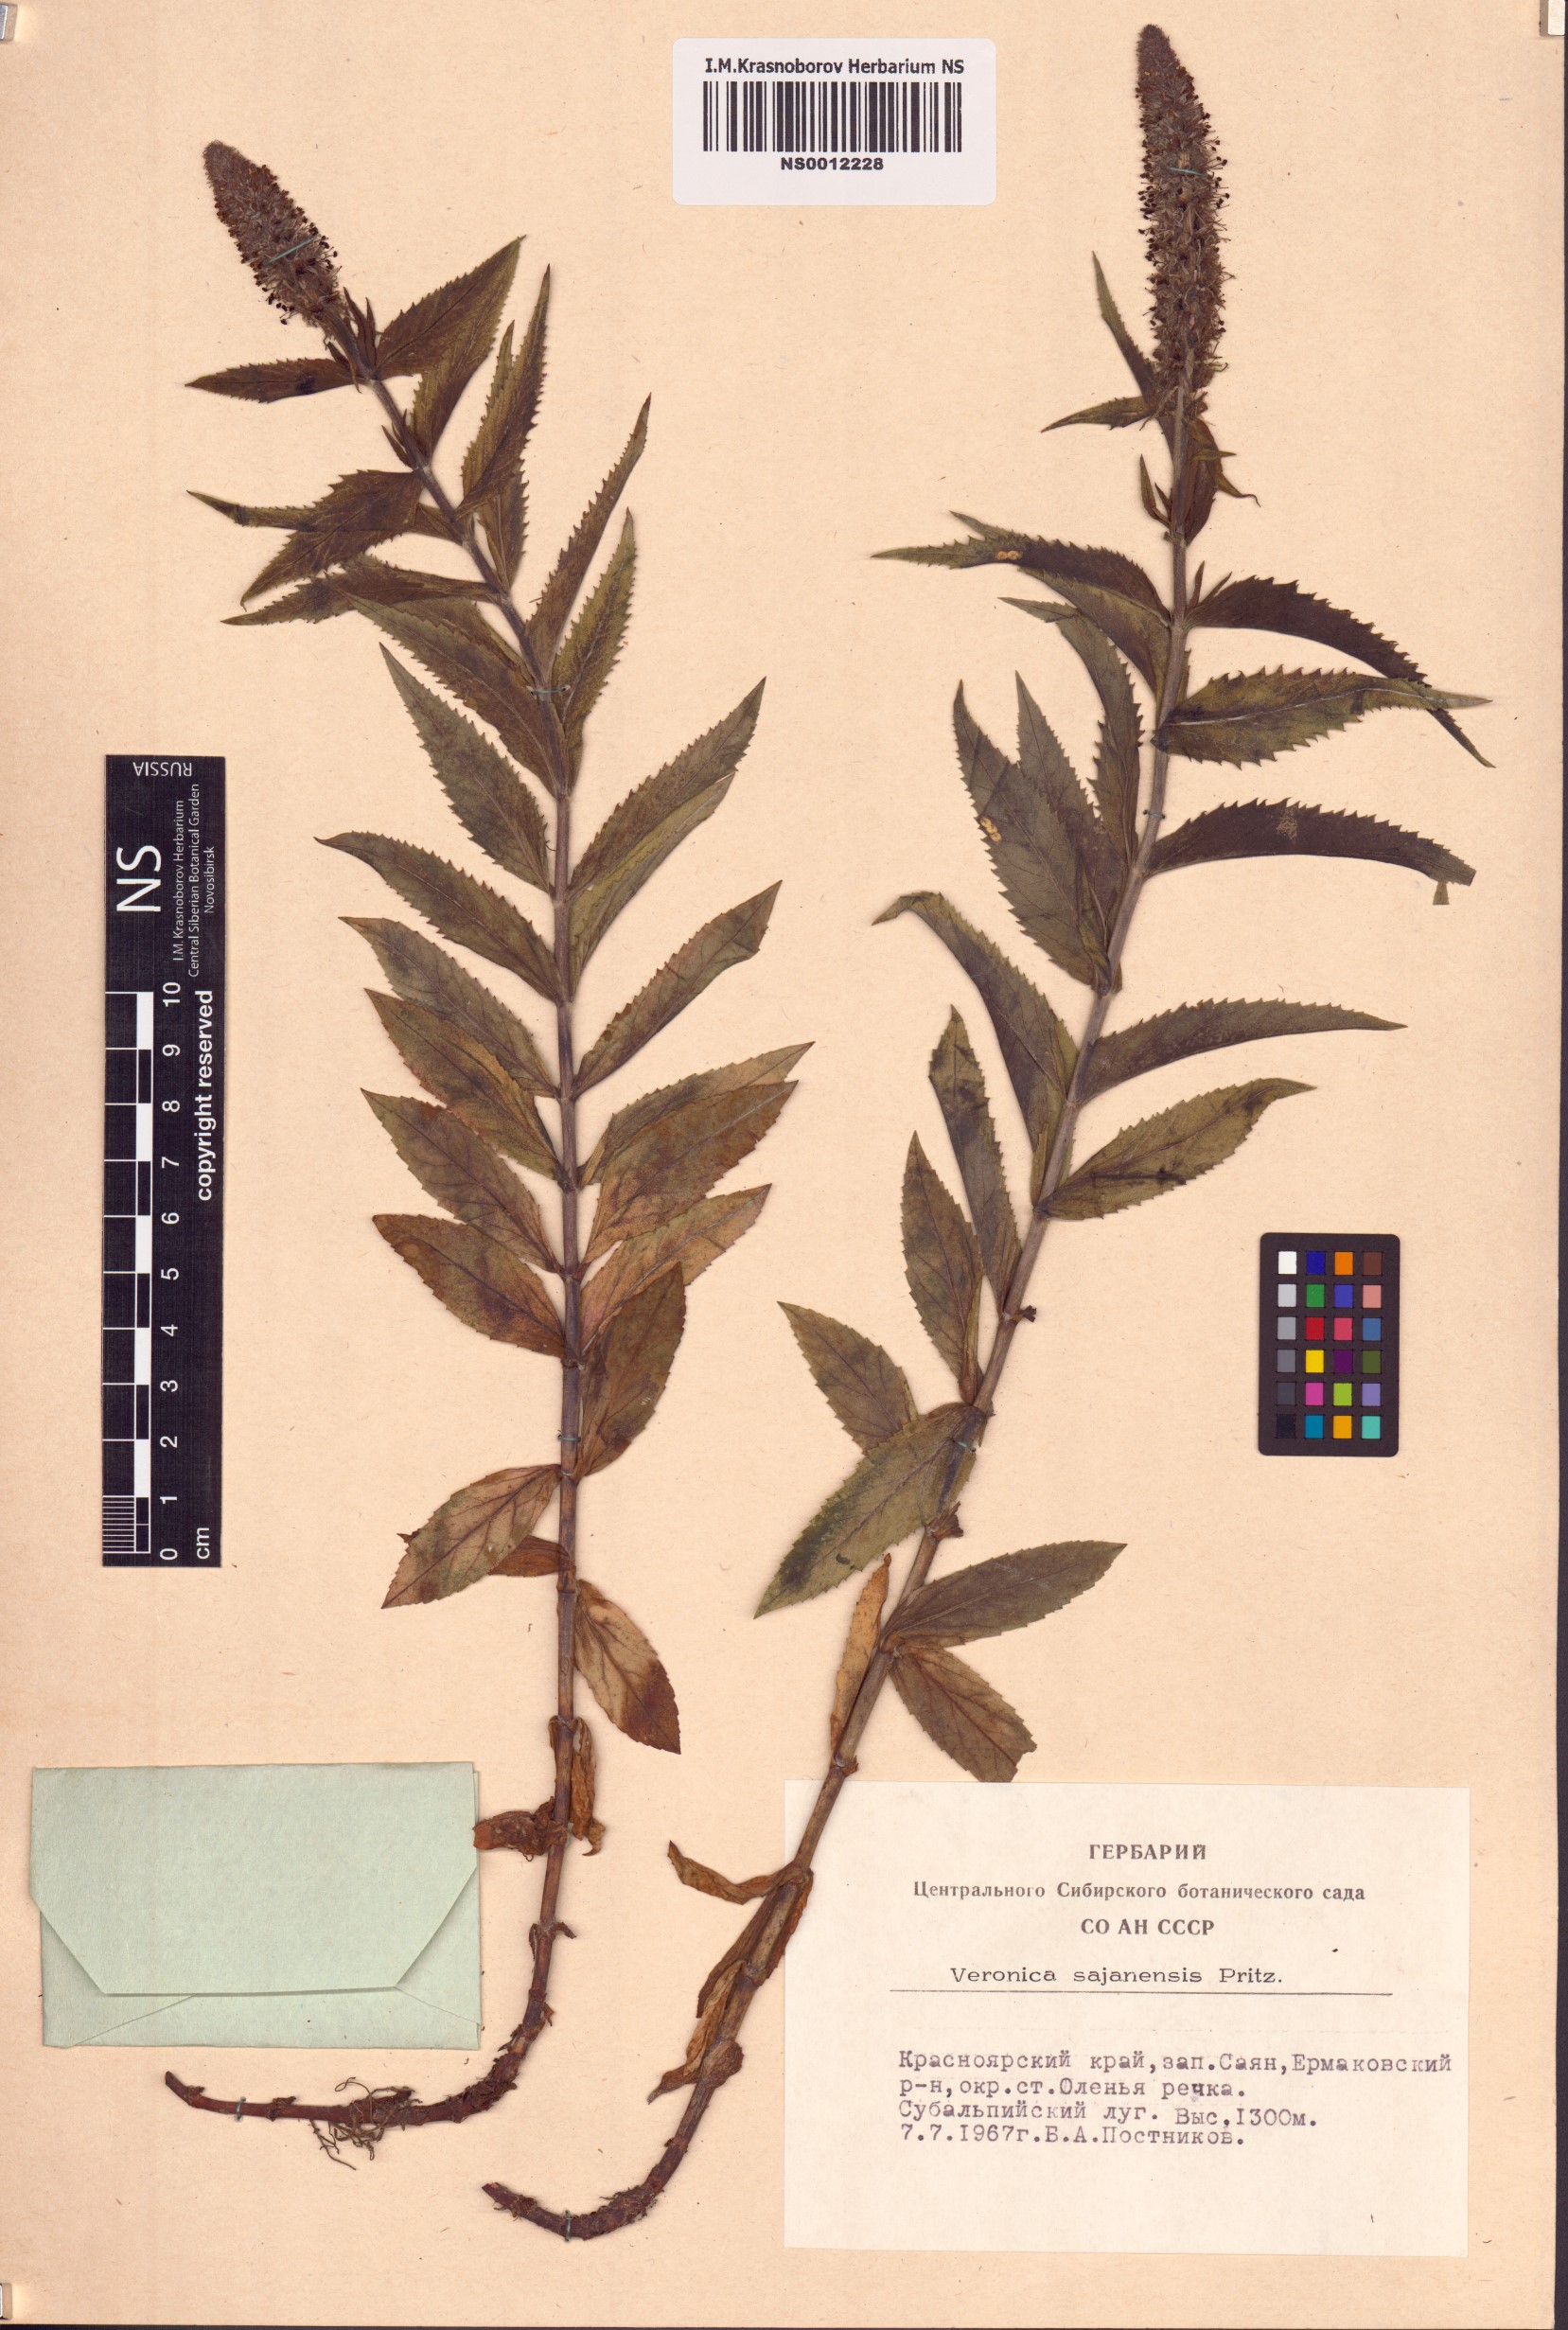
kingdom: Plantae
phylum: Tracheophyta
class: Magnoliopsida
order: Lamiales
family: Plantaginaceae
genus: Veronica
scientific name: Veronica sajanensis
